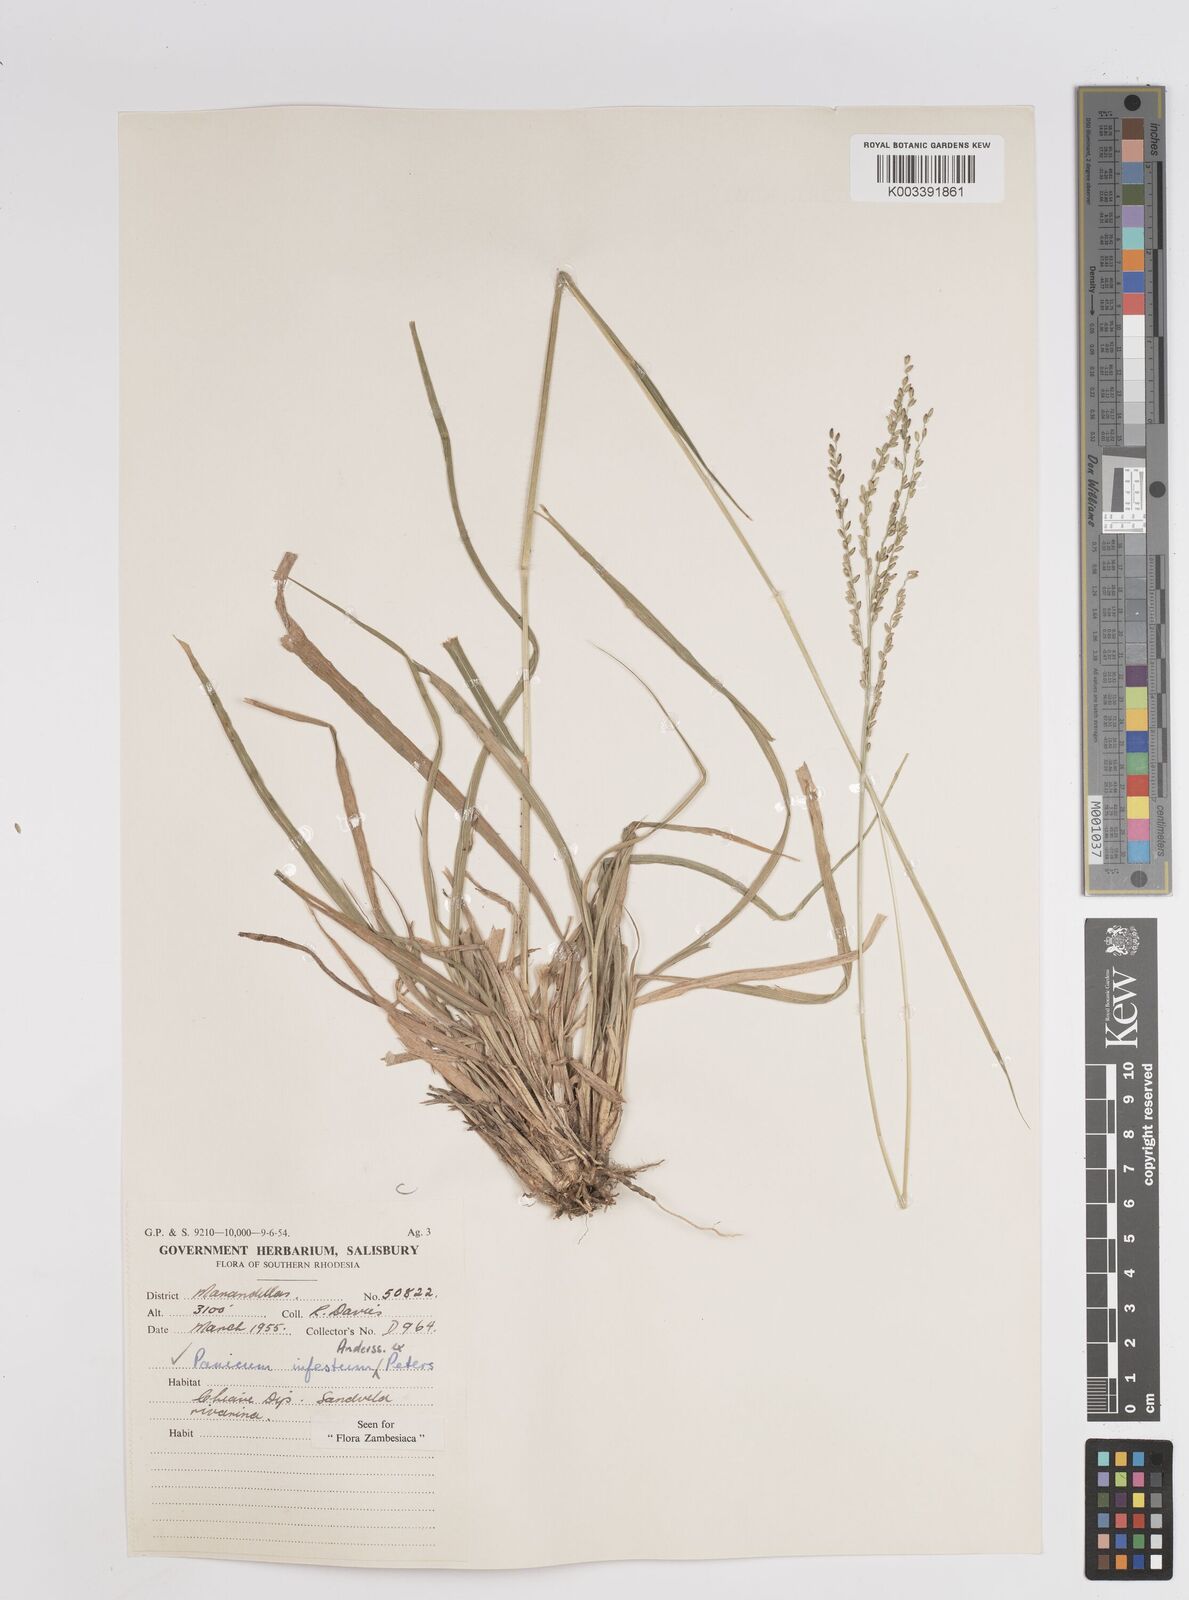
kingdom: Plantae
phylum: Tracheophyta
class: Liliopsida
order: Poales
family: Poaceae
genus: Megathyrsus
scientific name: Megathyrsus infestus
